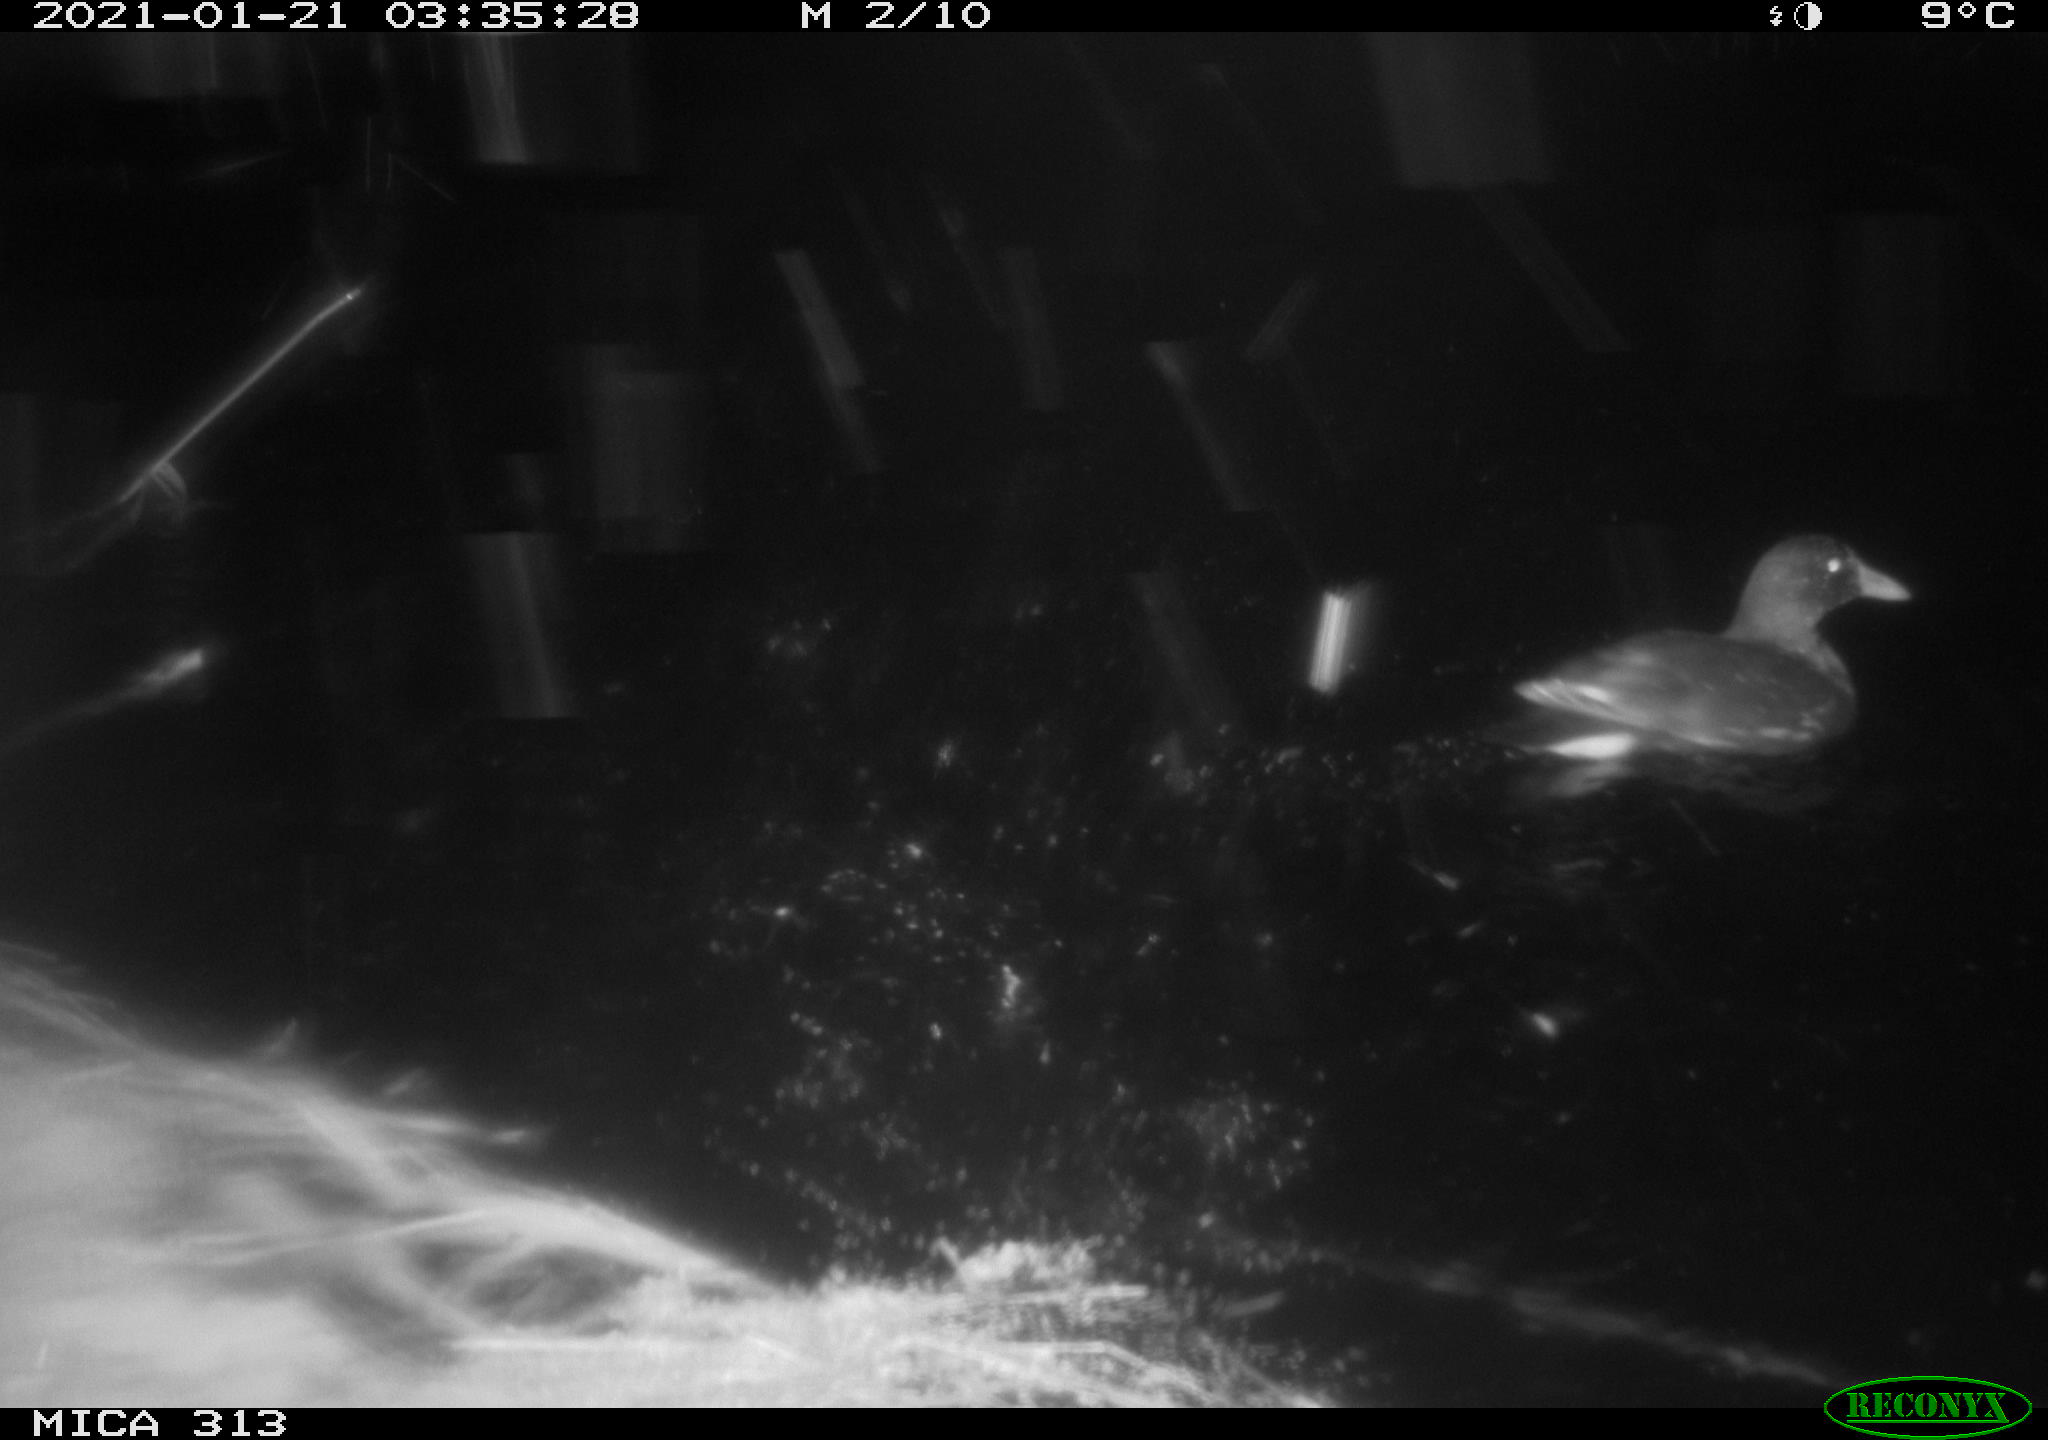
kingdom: Animalia
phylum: Chordata
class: Aves
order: Gruiformes
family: Rallidae
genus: Gallinula
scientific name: Gallinula chloropus
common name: Common moorhen
